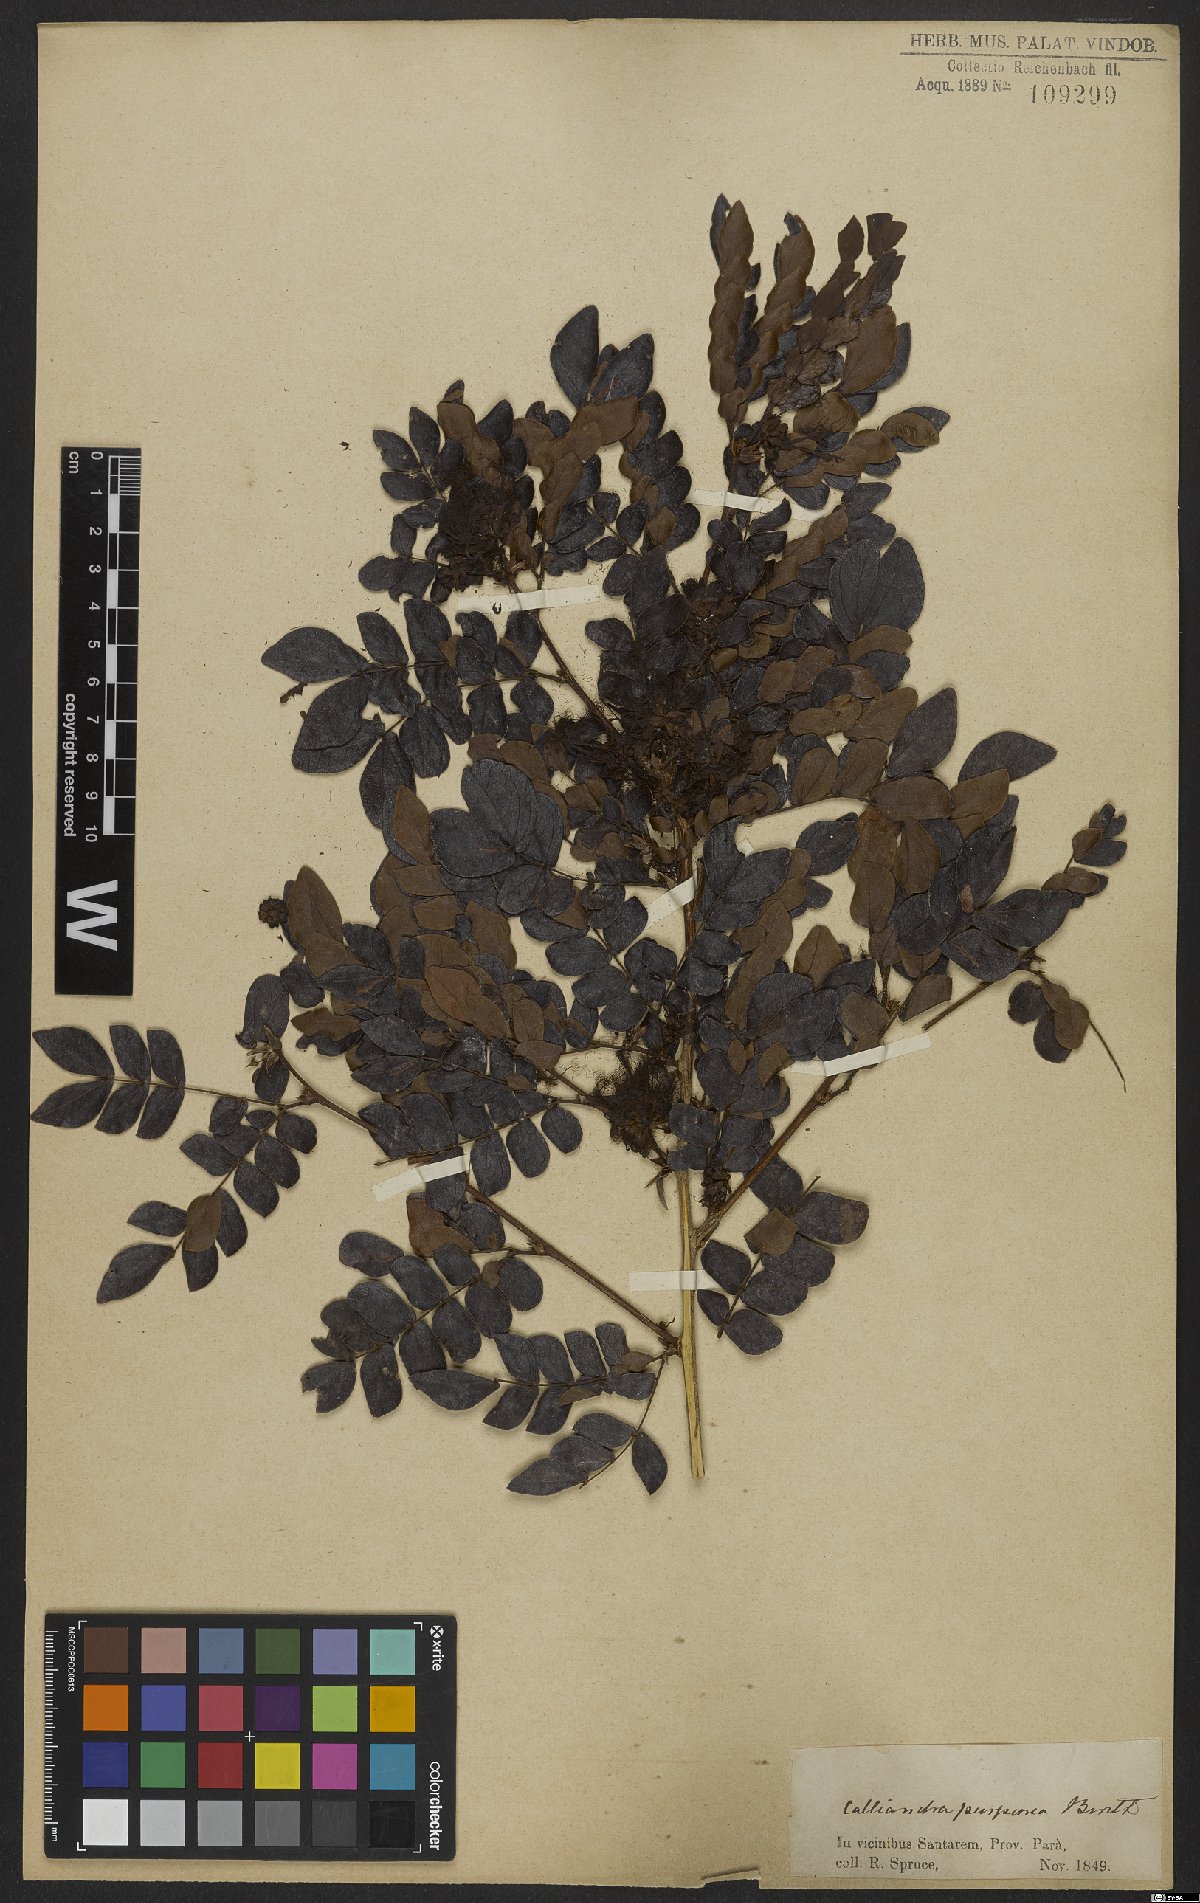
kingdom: Plantae
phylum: Tracheophyta
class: Magnoliopsida
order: Fabales
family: Fabaceae
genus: Calliandra
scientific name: Calliandra purpurea
